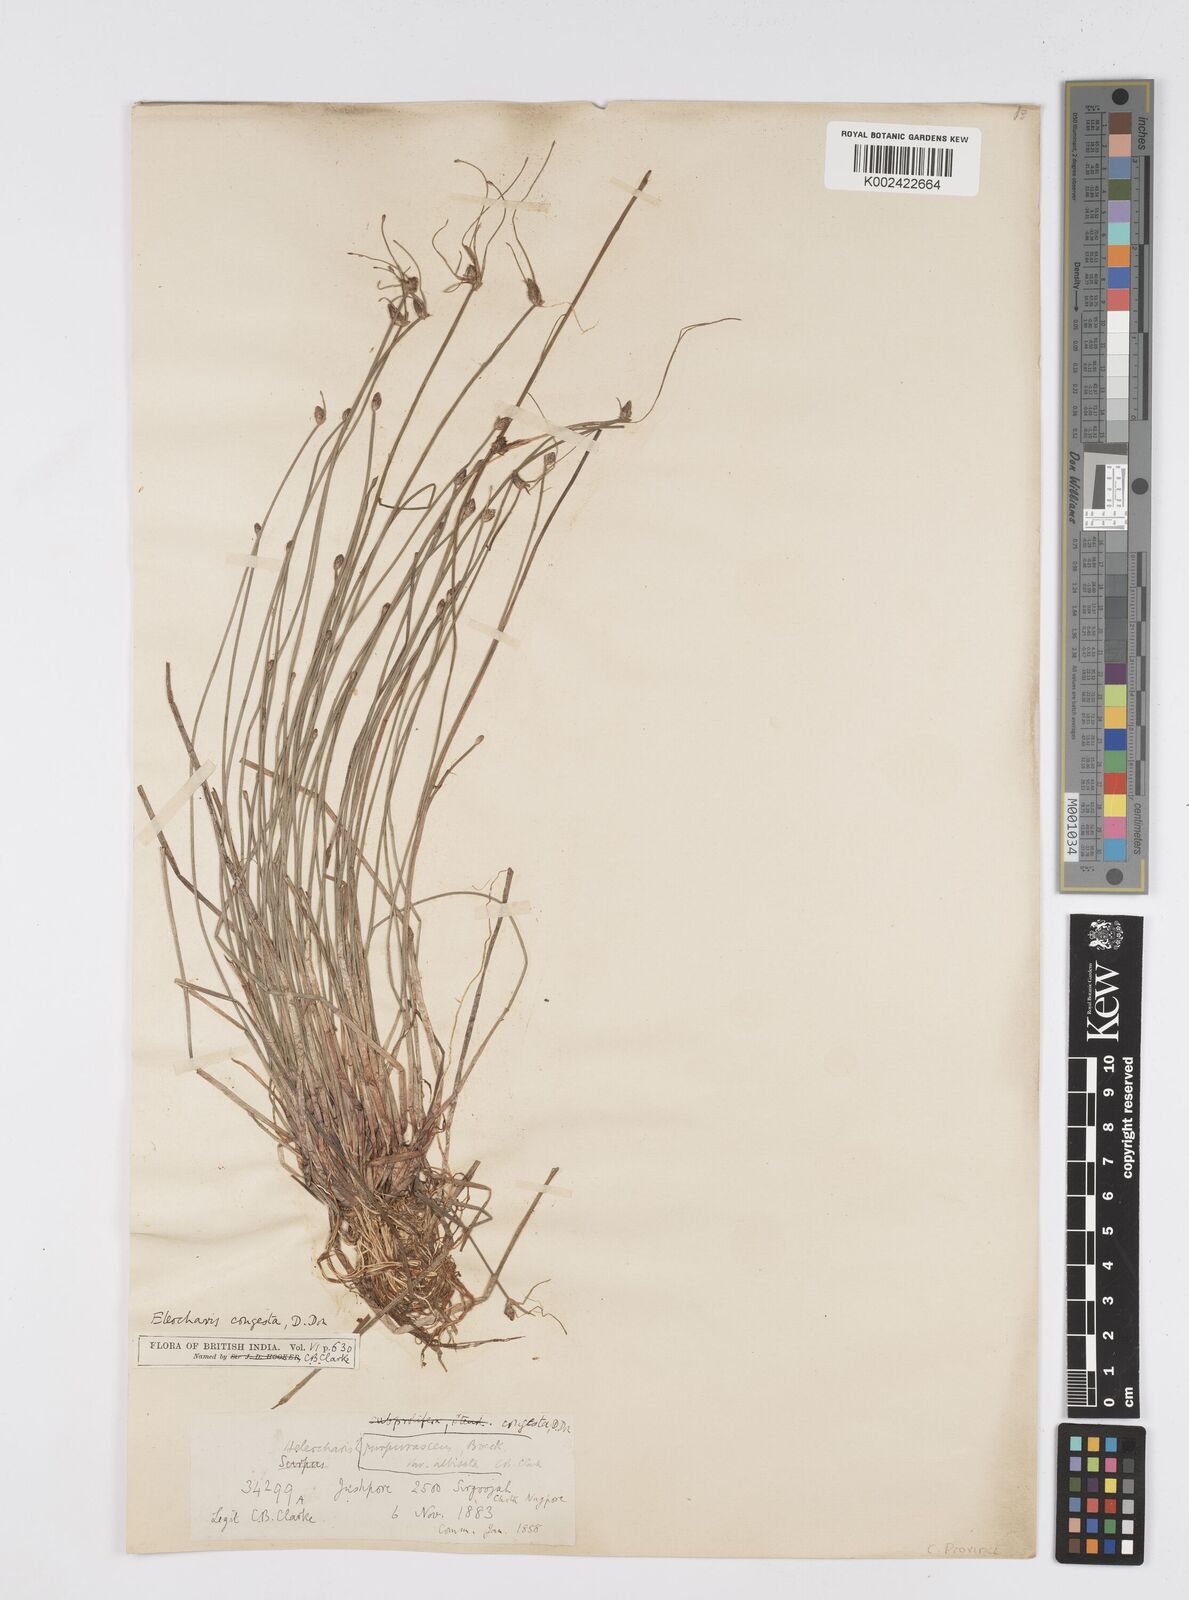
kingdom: Plantae
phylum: Tracheophyta
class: Liliopsida
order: Poales
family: Cyperaceae
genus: Eleocharis
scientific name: Eleocharis congesta
